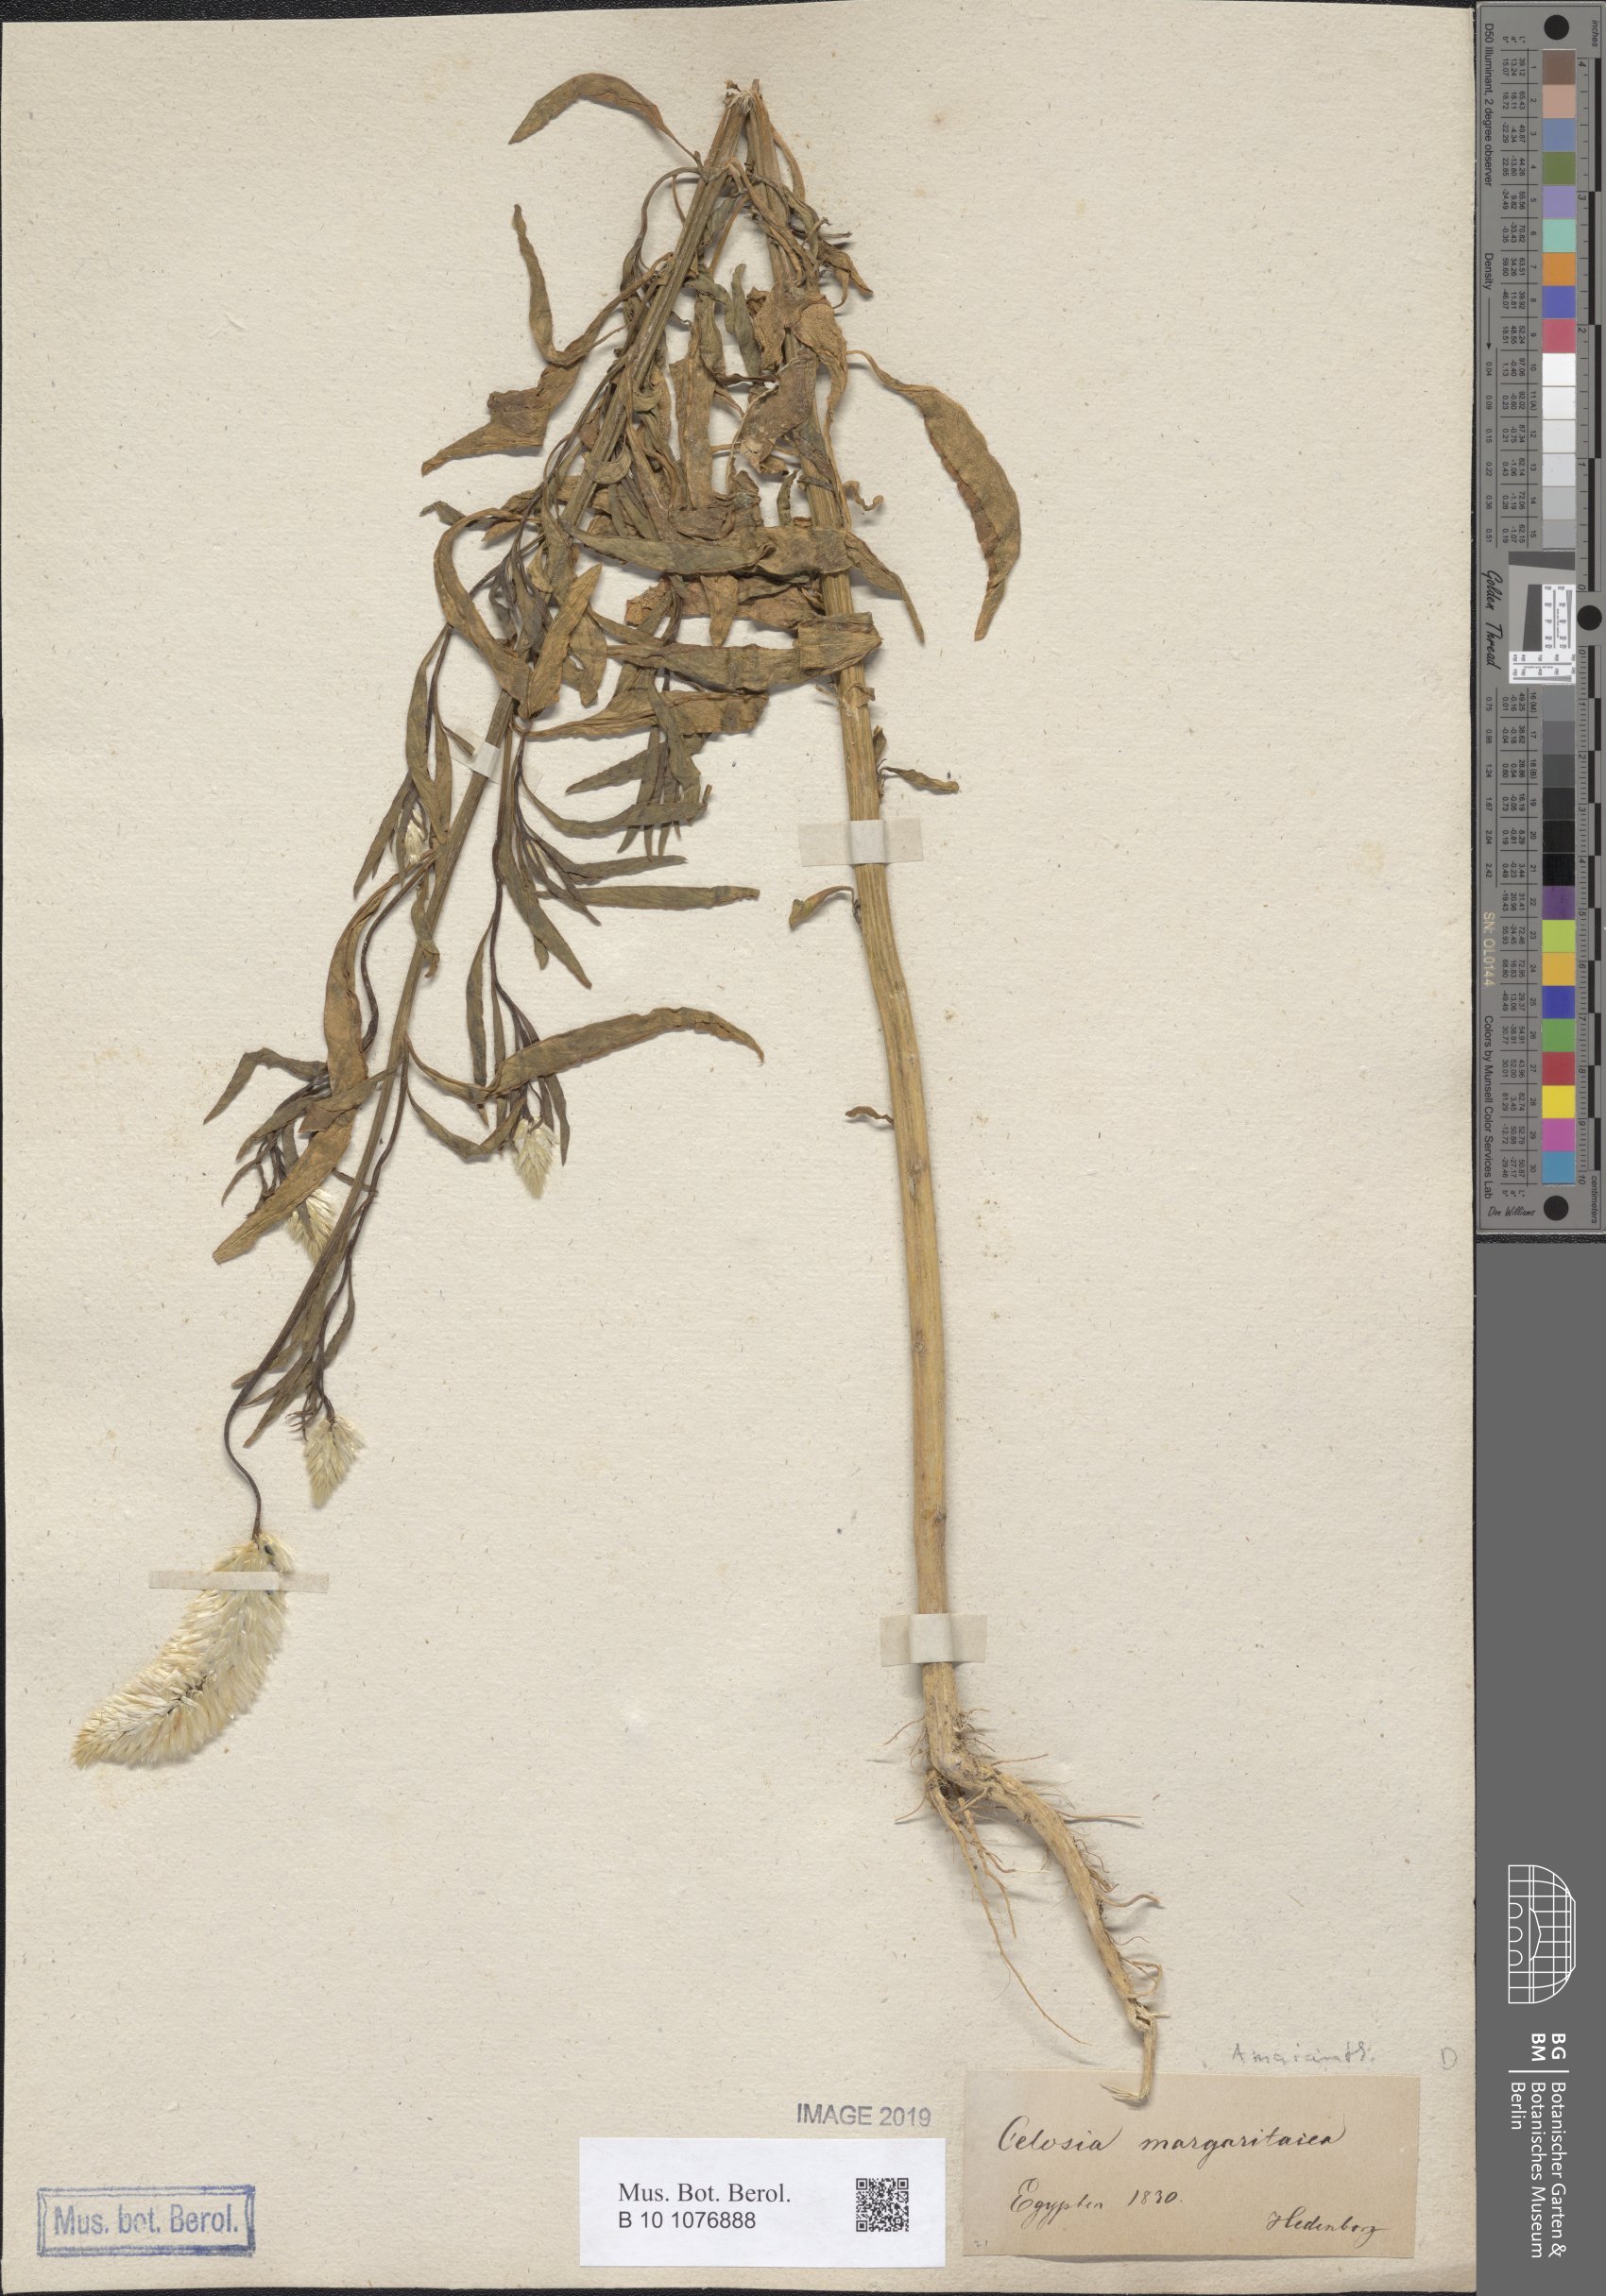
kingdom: Plantae
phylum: Tracheophyta
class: Magnoliopsida
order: Caryophyllales
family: Amaranthaceae
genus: Celosia
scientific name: Celosia argentea
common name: Feather cockscomb
